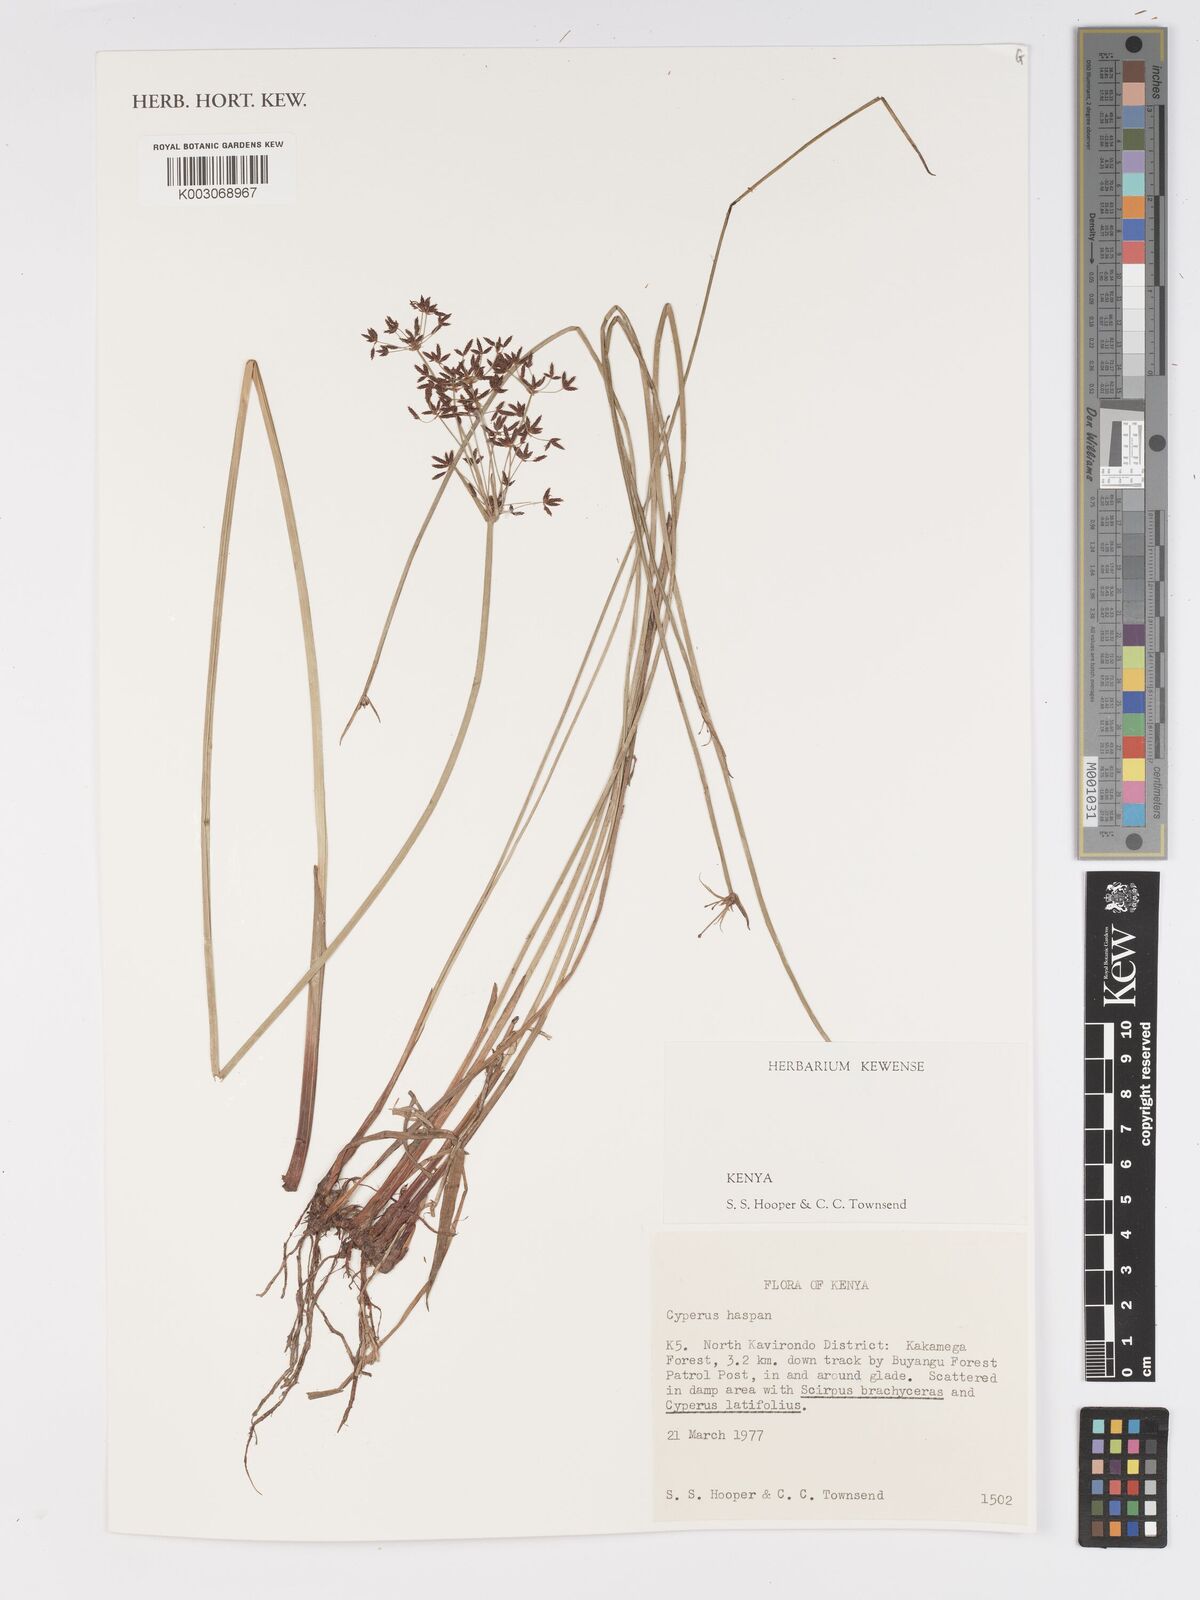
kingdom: Plantae
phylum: Tracheophyta
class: Liliopsida
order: Poales
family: Cyperaceae
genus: Cyperus
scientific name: Cyperus haspan
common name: Haspan flatsedge
